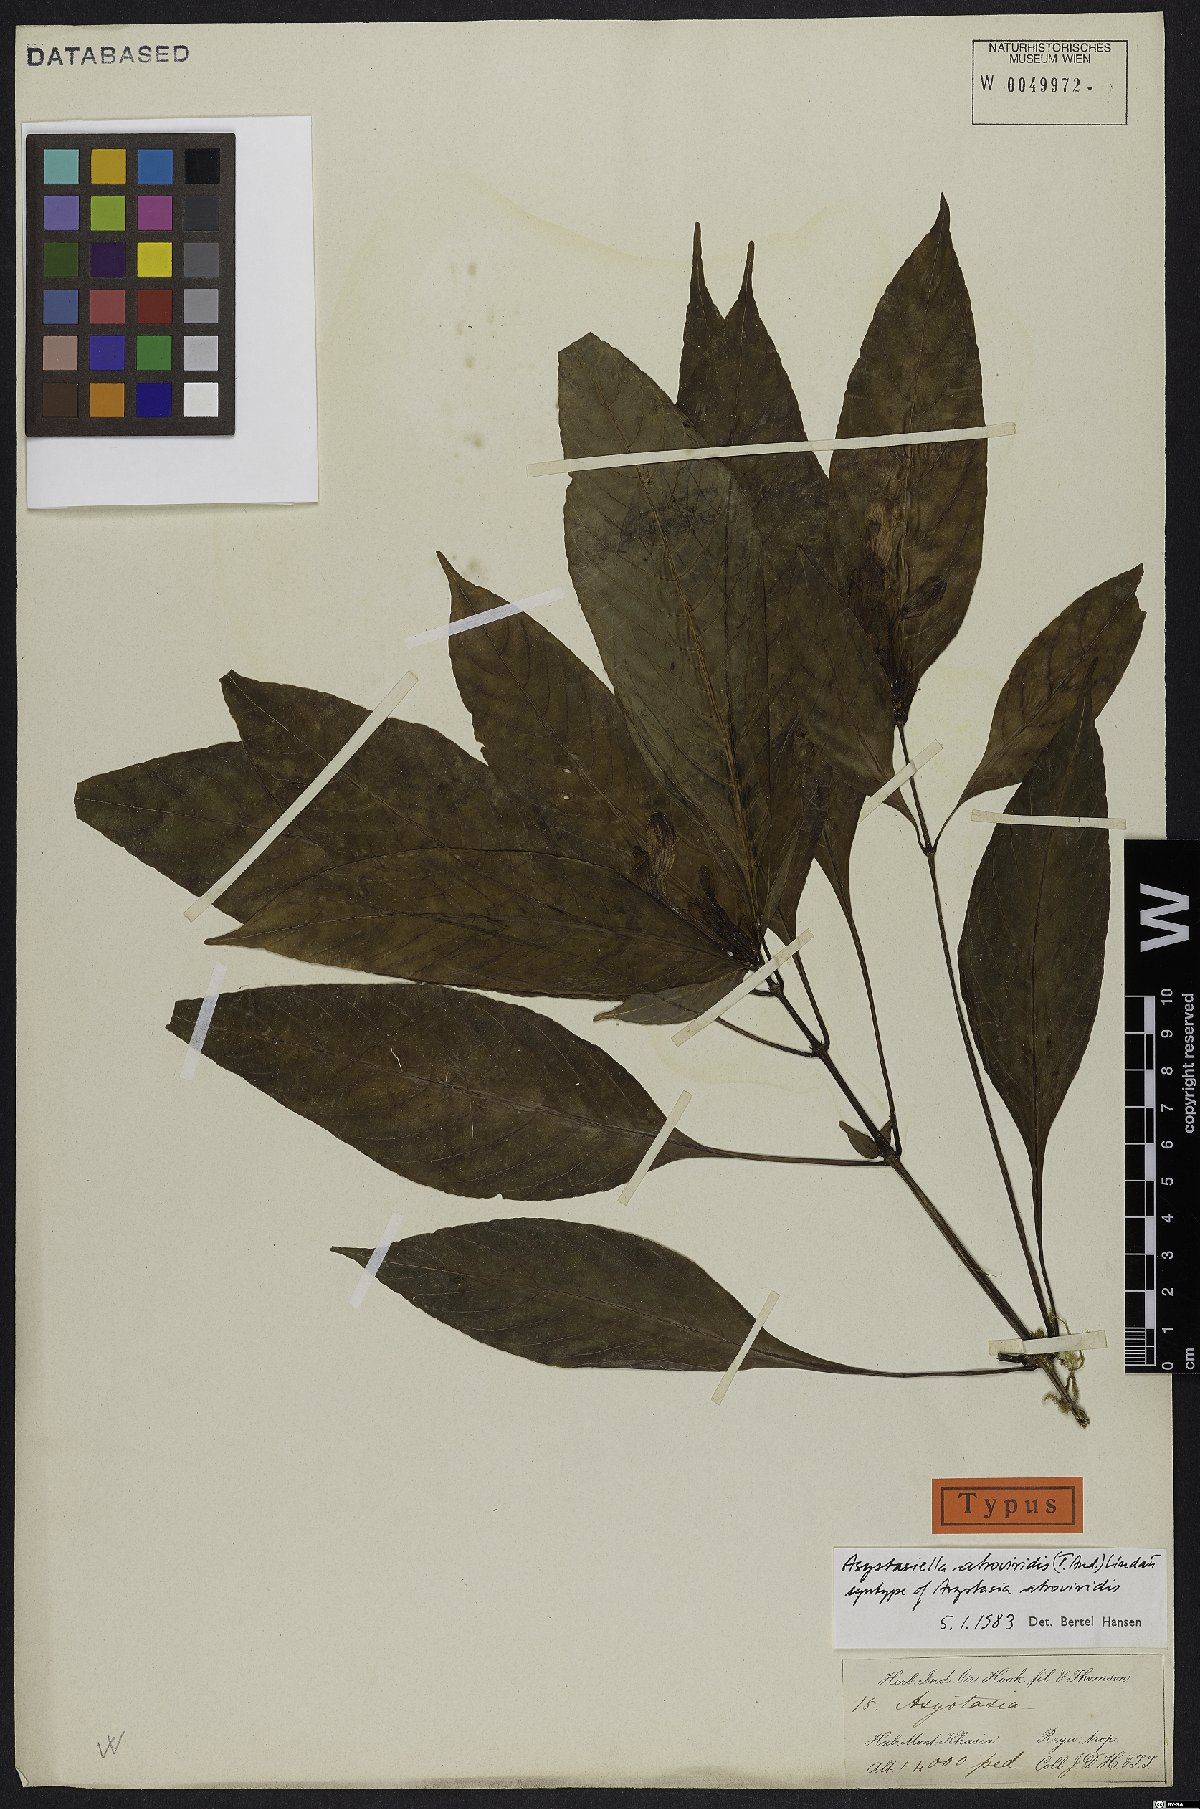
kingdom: Plantae
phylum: Tracheophyta
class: Magnoliopsida
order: Lamiales
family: Acanthaceae
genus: Mackaya
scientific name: Mackaya atroviridis
